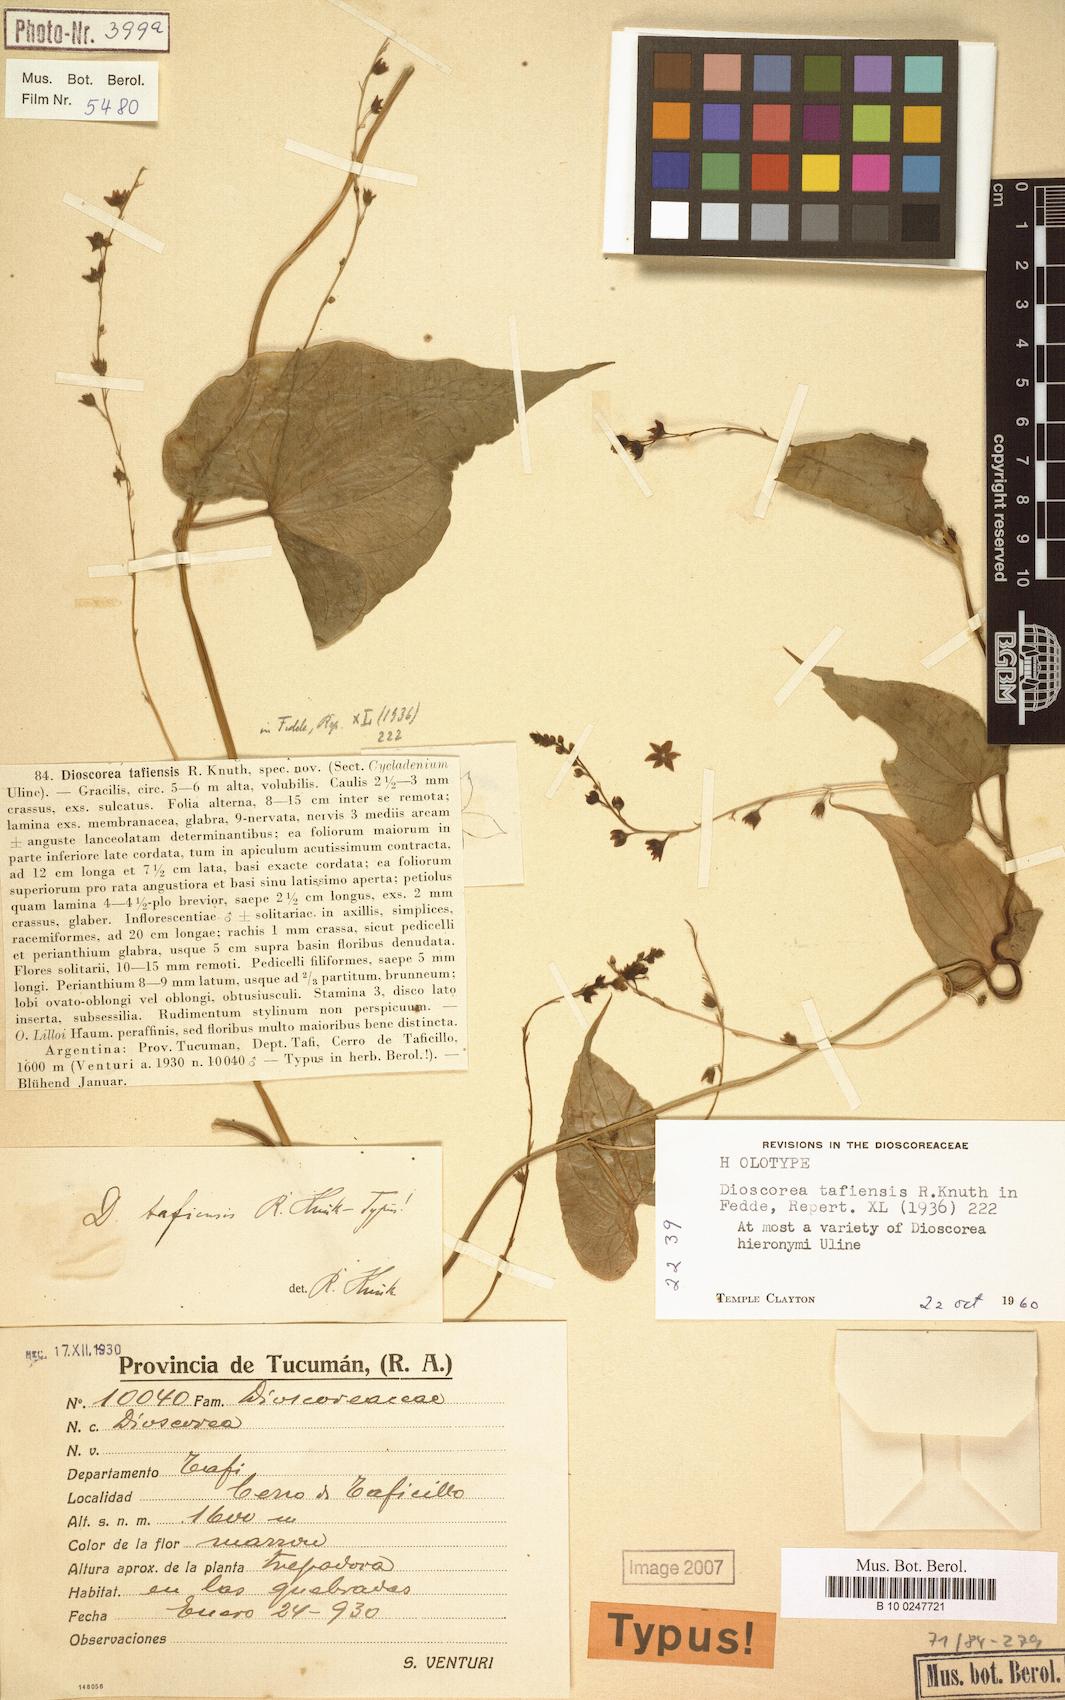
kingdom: Plantae
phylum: Tracheophyta
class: Liliopsida
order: Dioscoreales
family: Dioscoreaceae
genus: Dioscorea
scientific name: Dioscorea hieronymi
